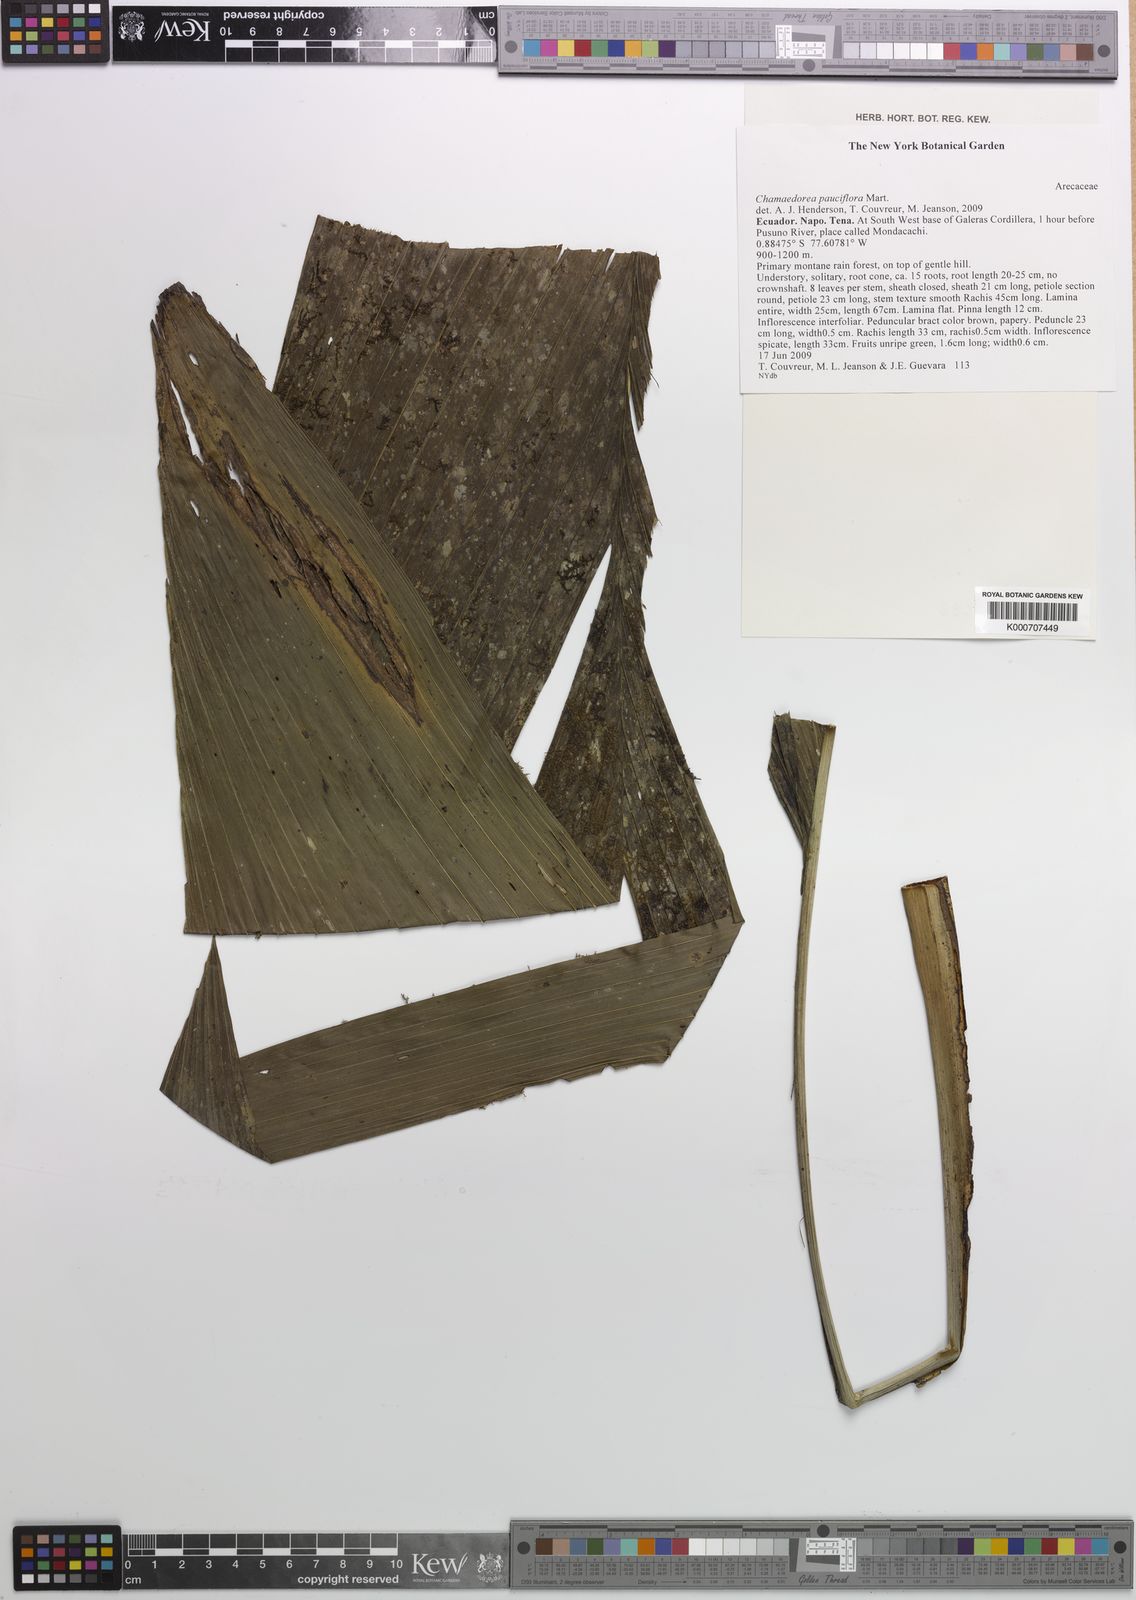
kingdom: Plantae
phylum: Tracheophyta
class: Liliopsida
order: Arecales
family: Arecaceae
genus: Chamaedorea
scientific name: Chamaedorea pauciflora
